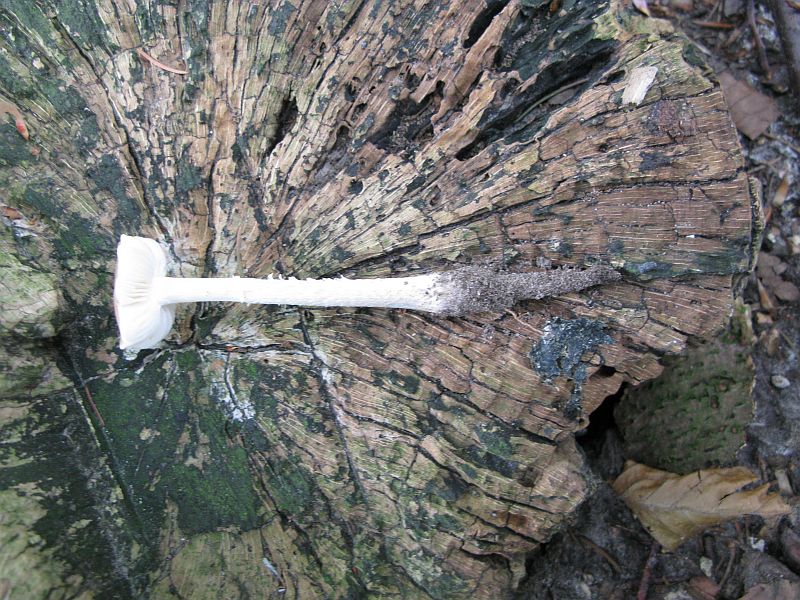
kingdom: Fungi
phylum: Basidiomycota
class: Agaricomycetes
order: Agaricales
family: Physalacriaceae
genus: Hymenopellis
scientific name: Hymenopellis radicata
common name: almindelig pælerodshat
